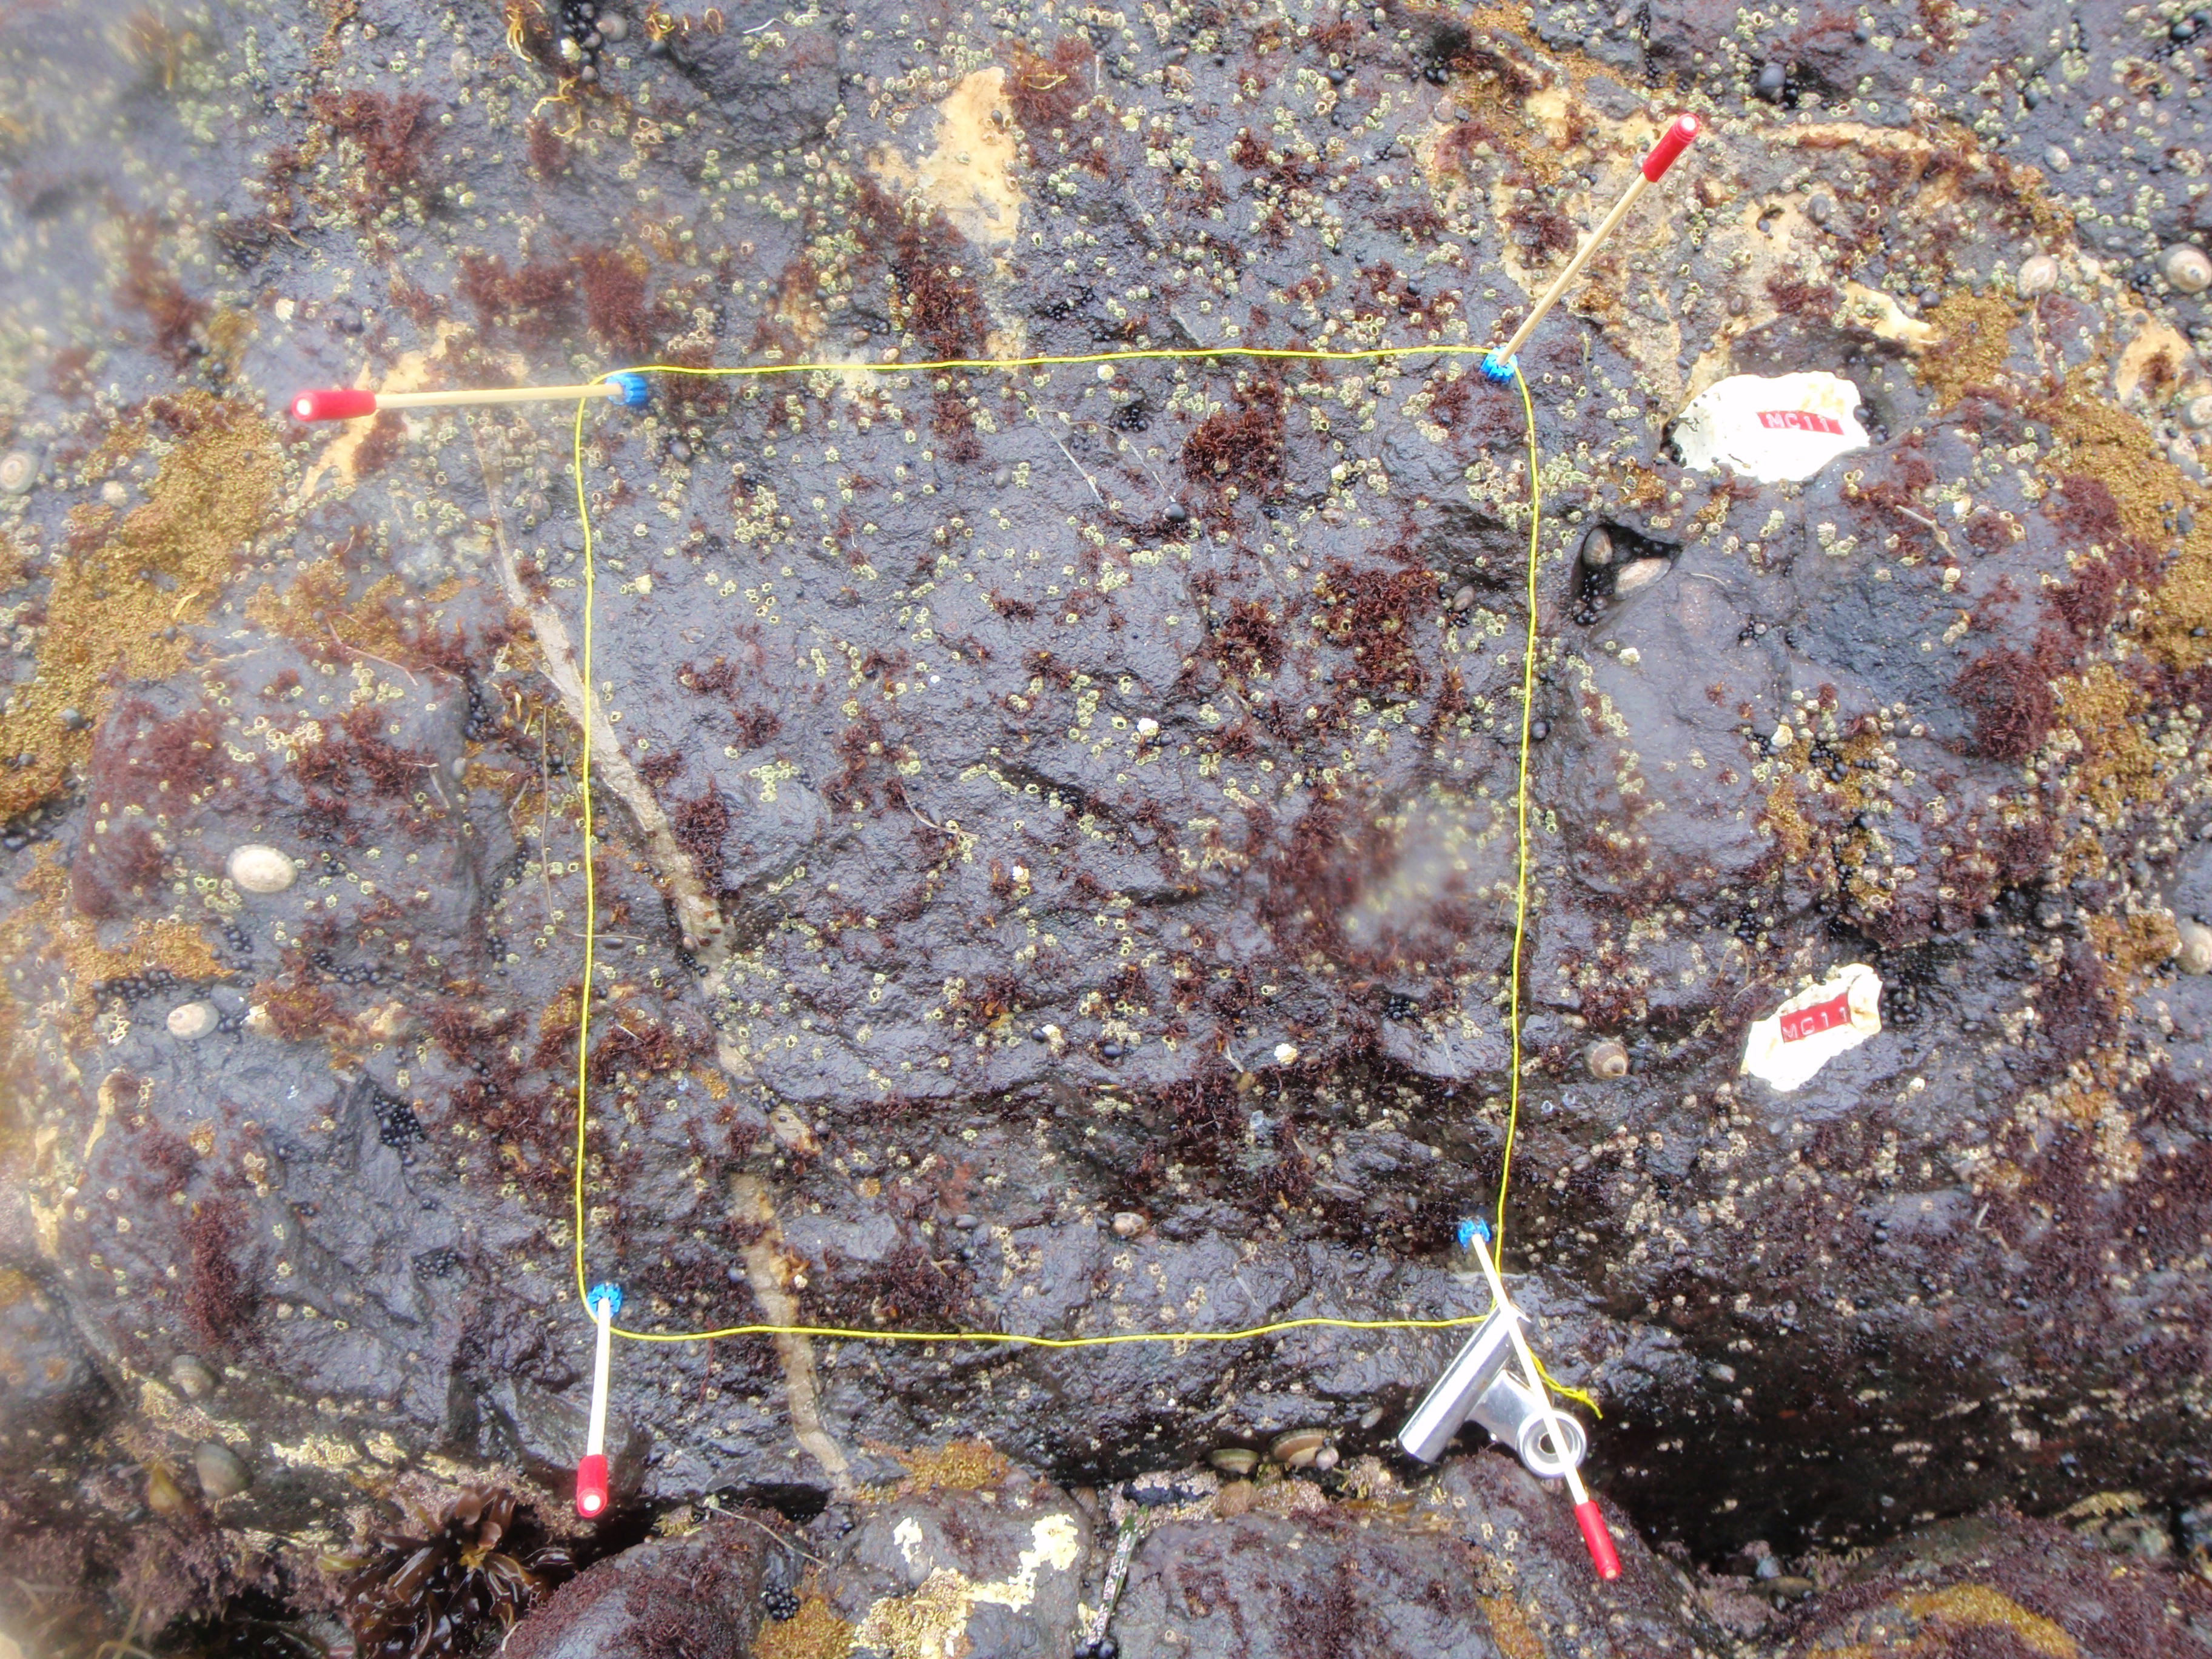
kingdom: Animalia
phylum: Arthropoda
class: Maxillopoda
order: Sessilia
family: Chthamalidae
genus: Chthamalus
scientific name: Chthamalus dalli
